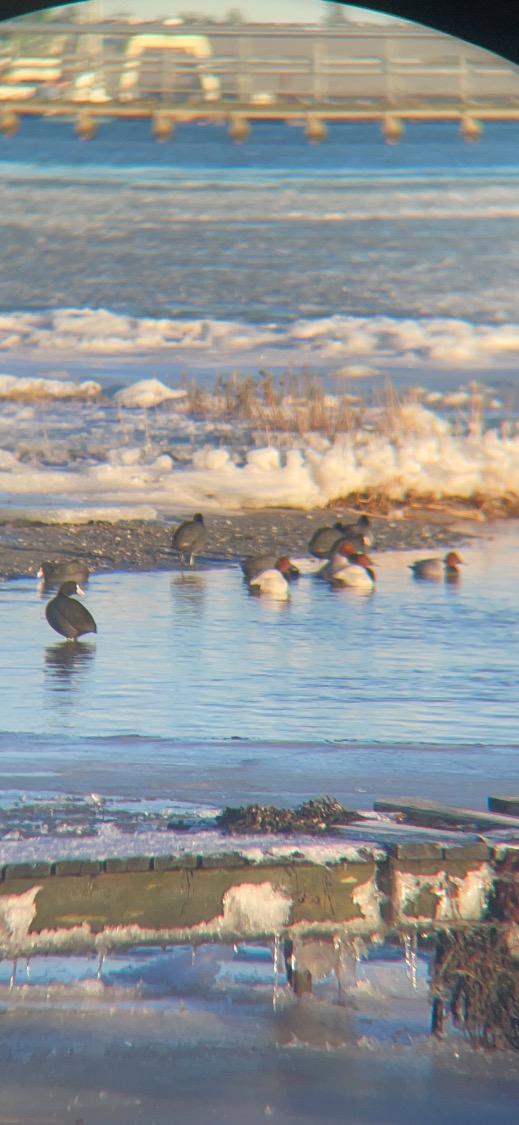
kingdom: Animalia
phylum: Chordata
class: Aves
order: Anseriformes
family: Anatidae
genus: Aythya
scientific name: Aythya ferina
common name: Taffeland
